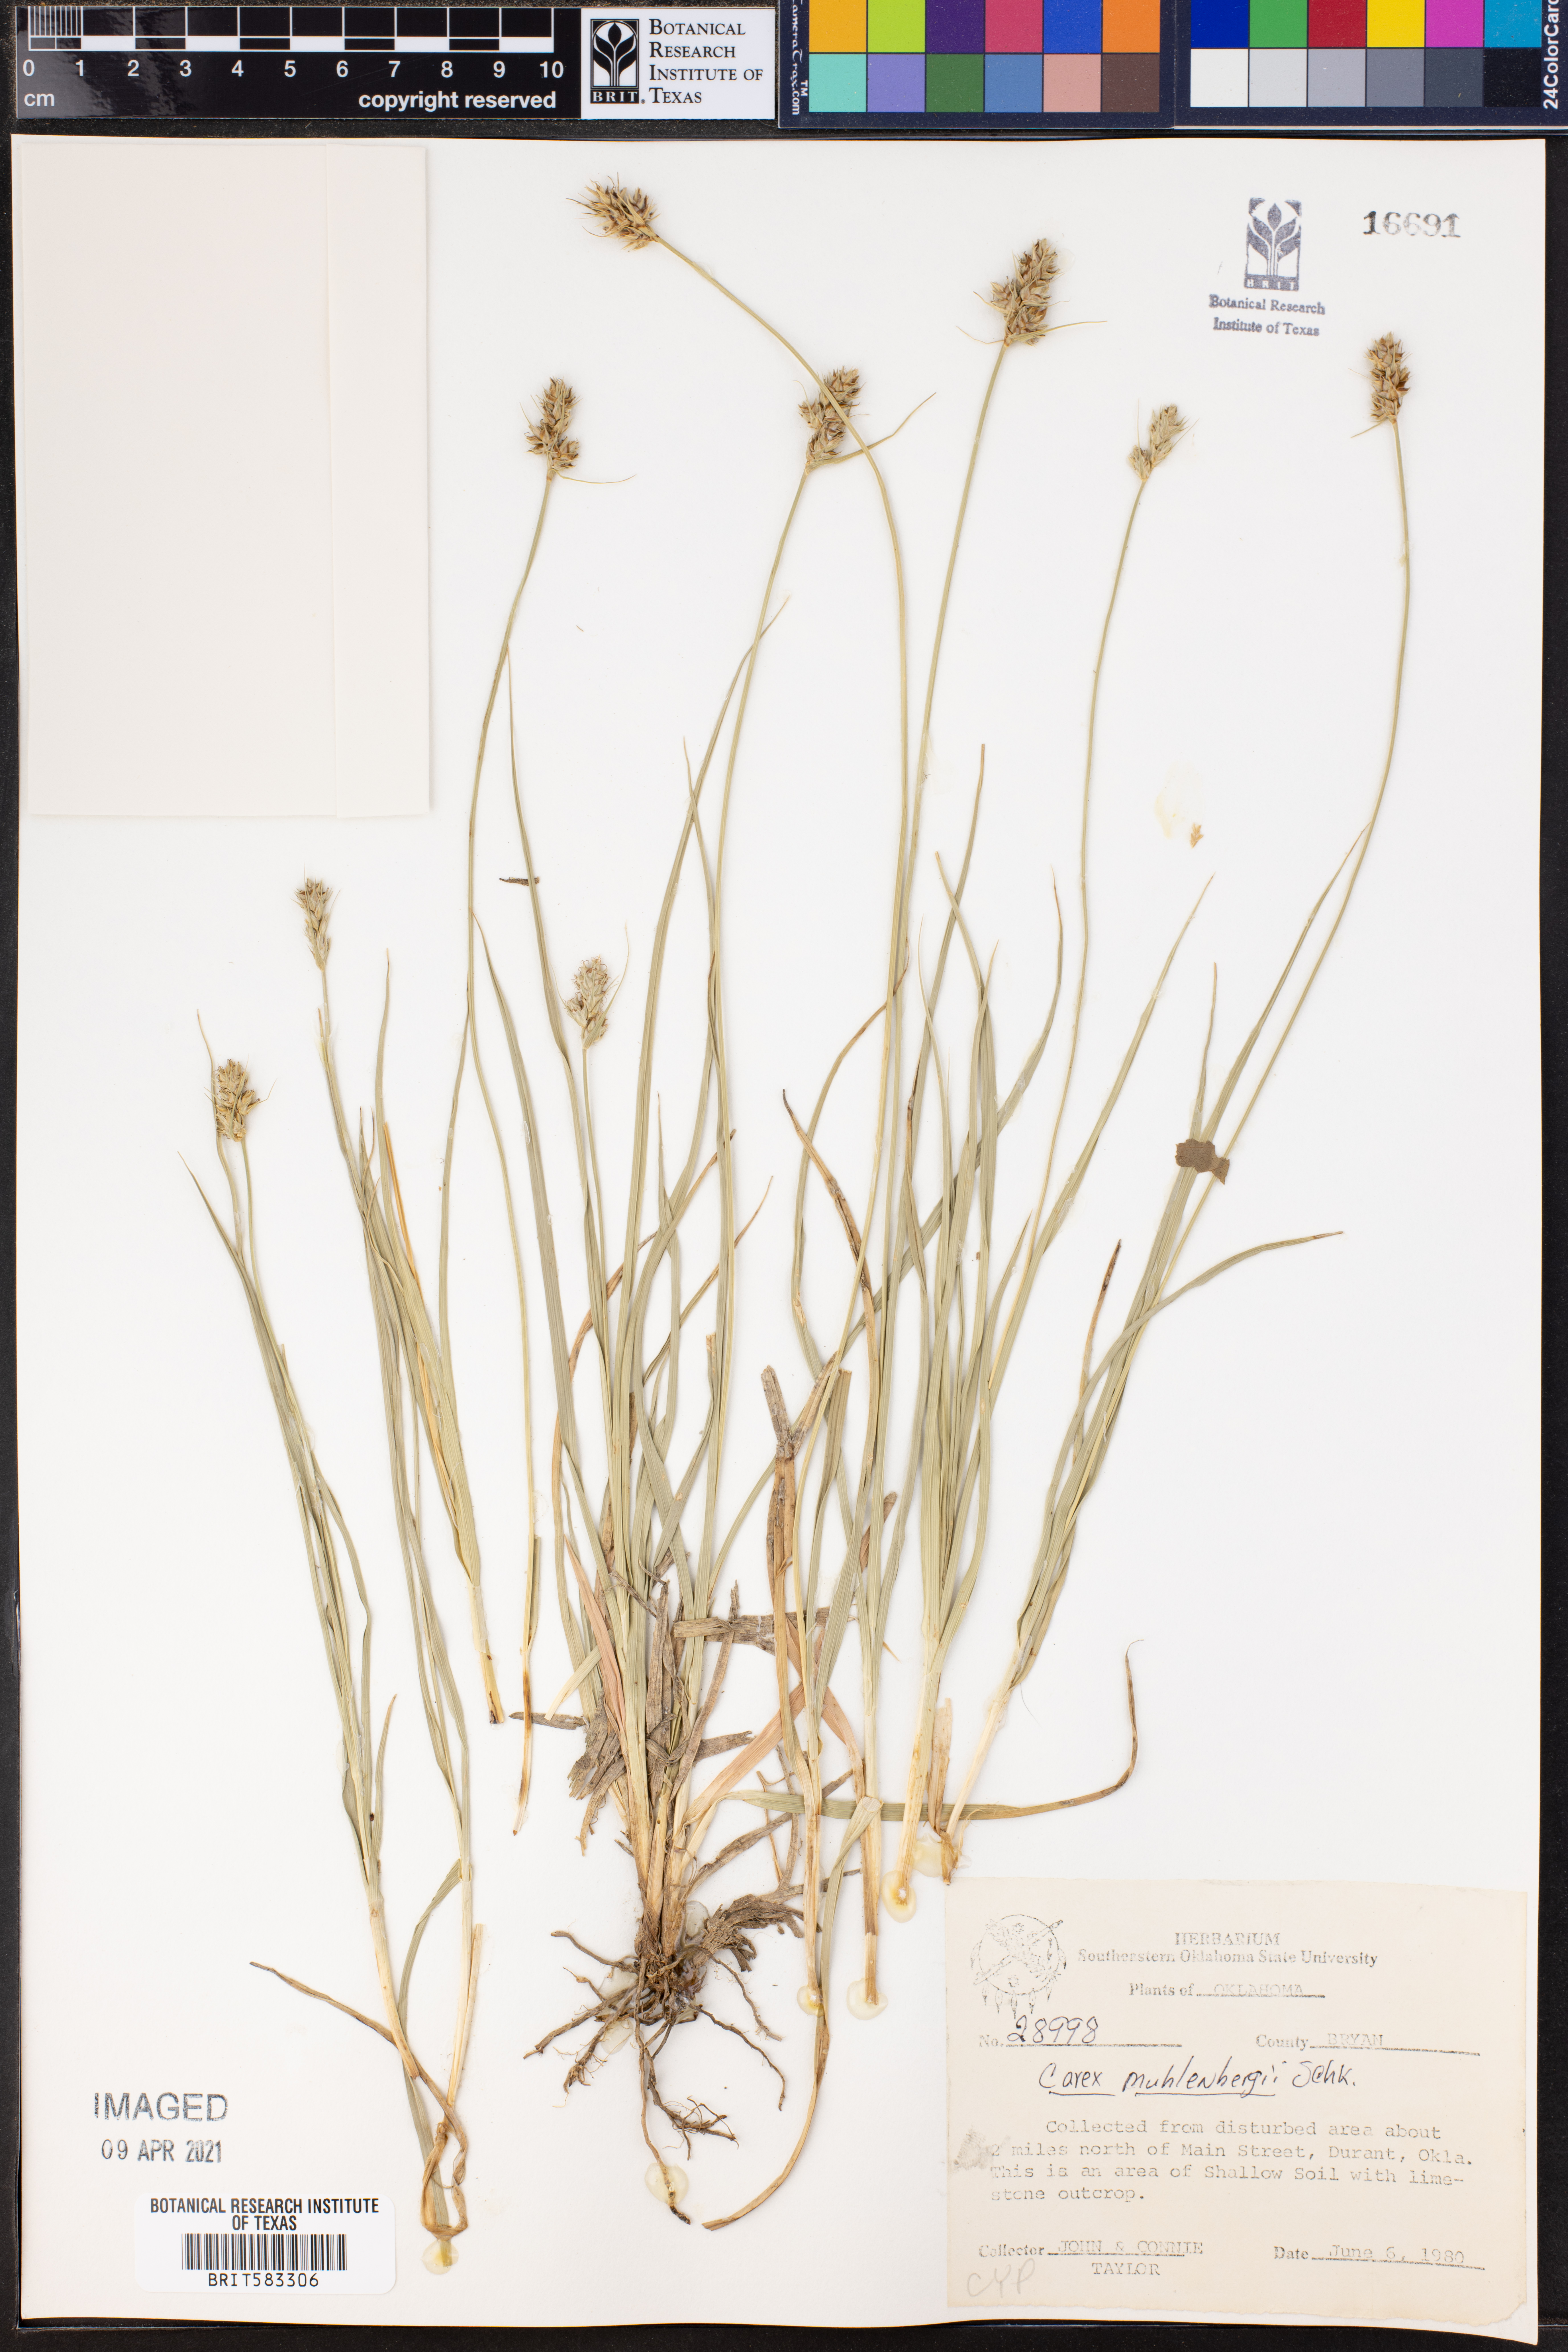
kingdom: Plantae
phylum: Tracheophyta
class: Liliopsida
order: Poales
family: Cyperaceae
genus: Carex
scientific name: Carex vulpinoidea
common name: American fox-sedge
